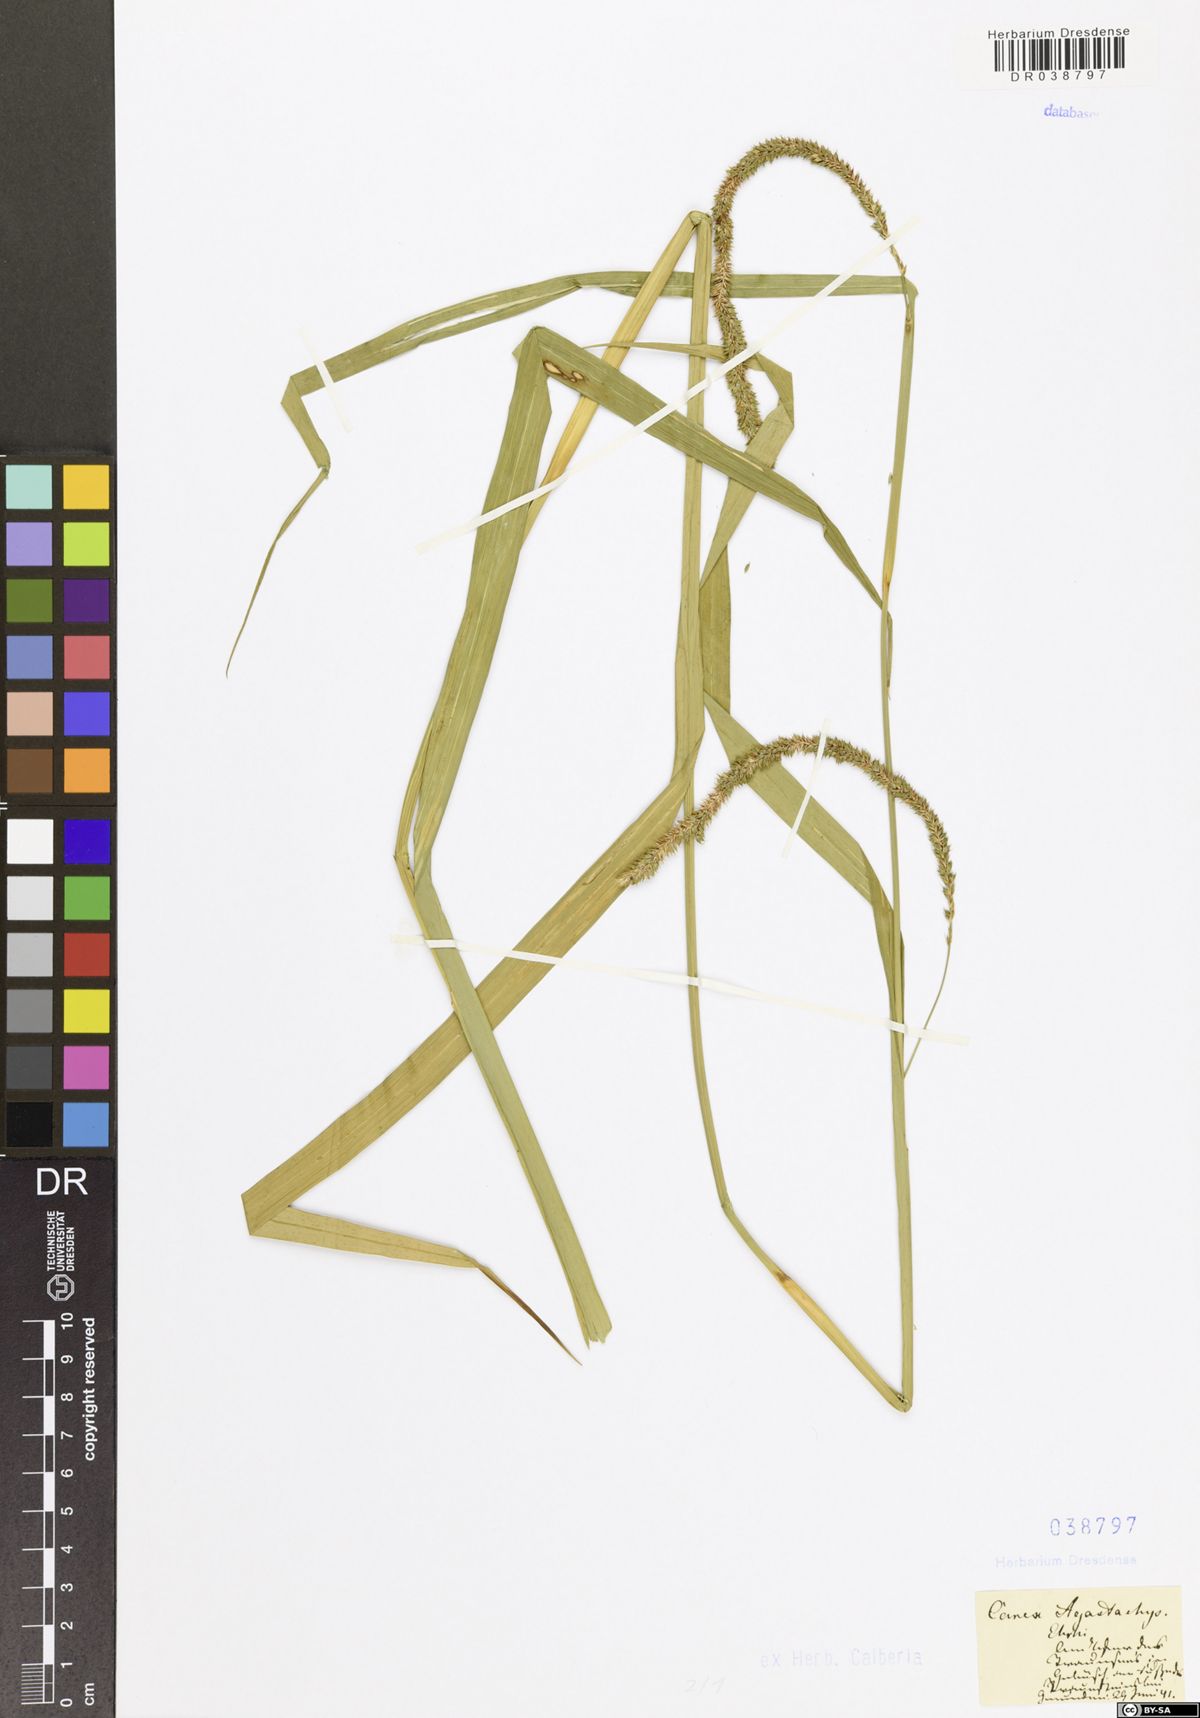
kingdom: Plantae
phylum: Tracheophyta
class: Liliopsida
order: Poales
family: Cyperaceae
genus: Carex
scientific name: Carex agastachys
